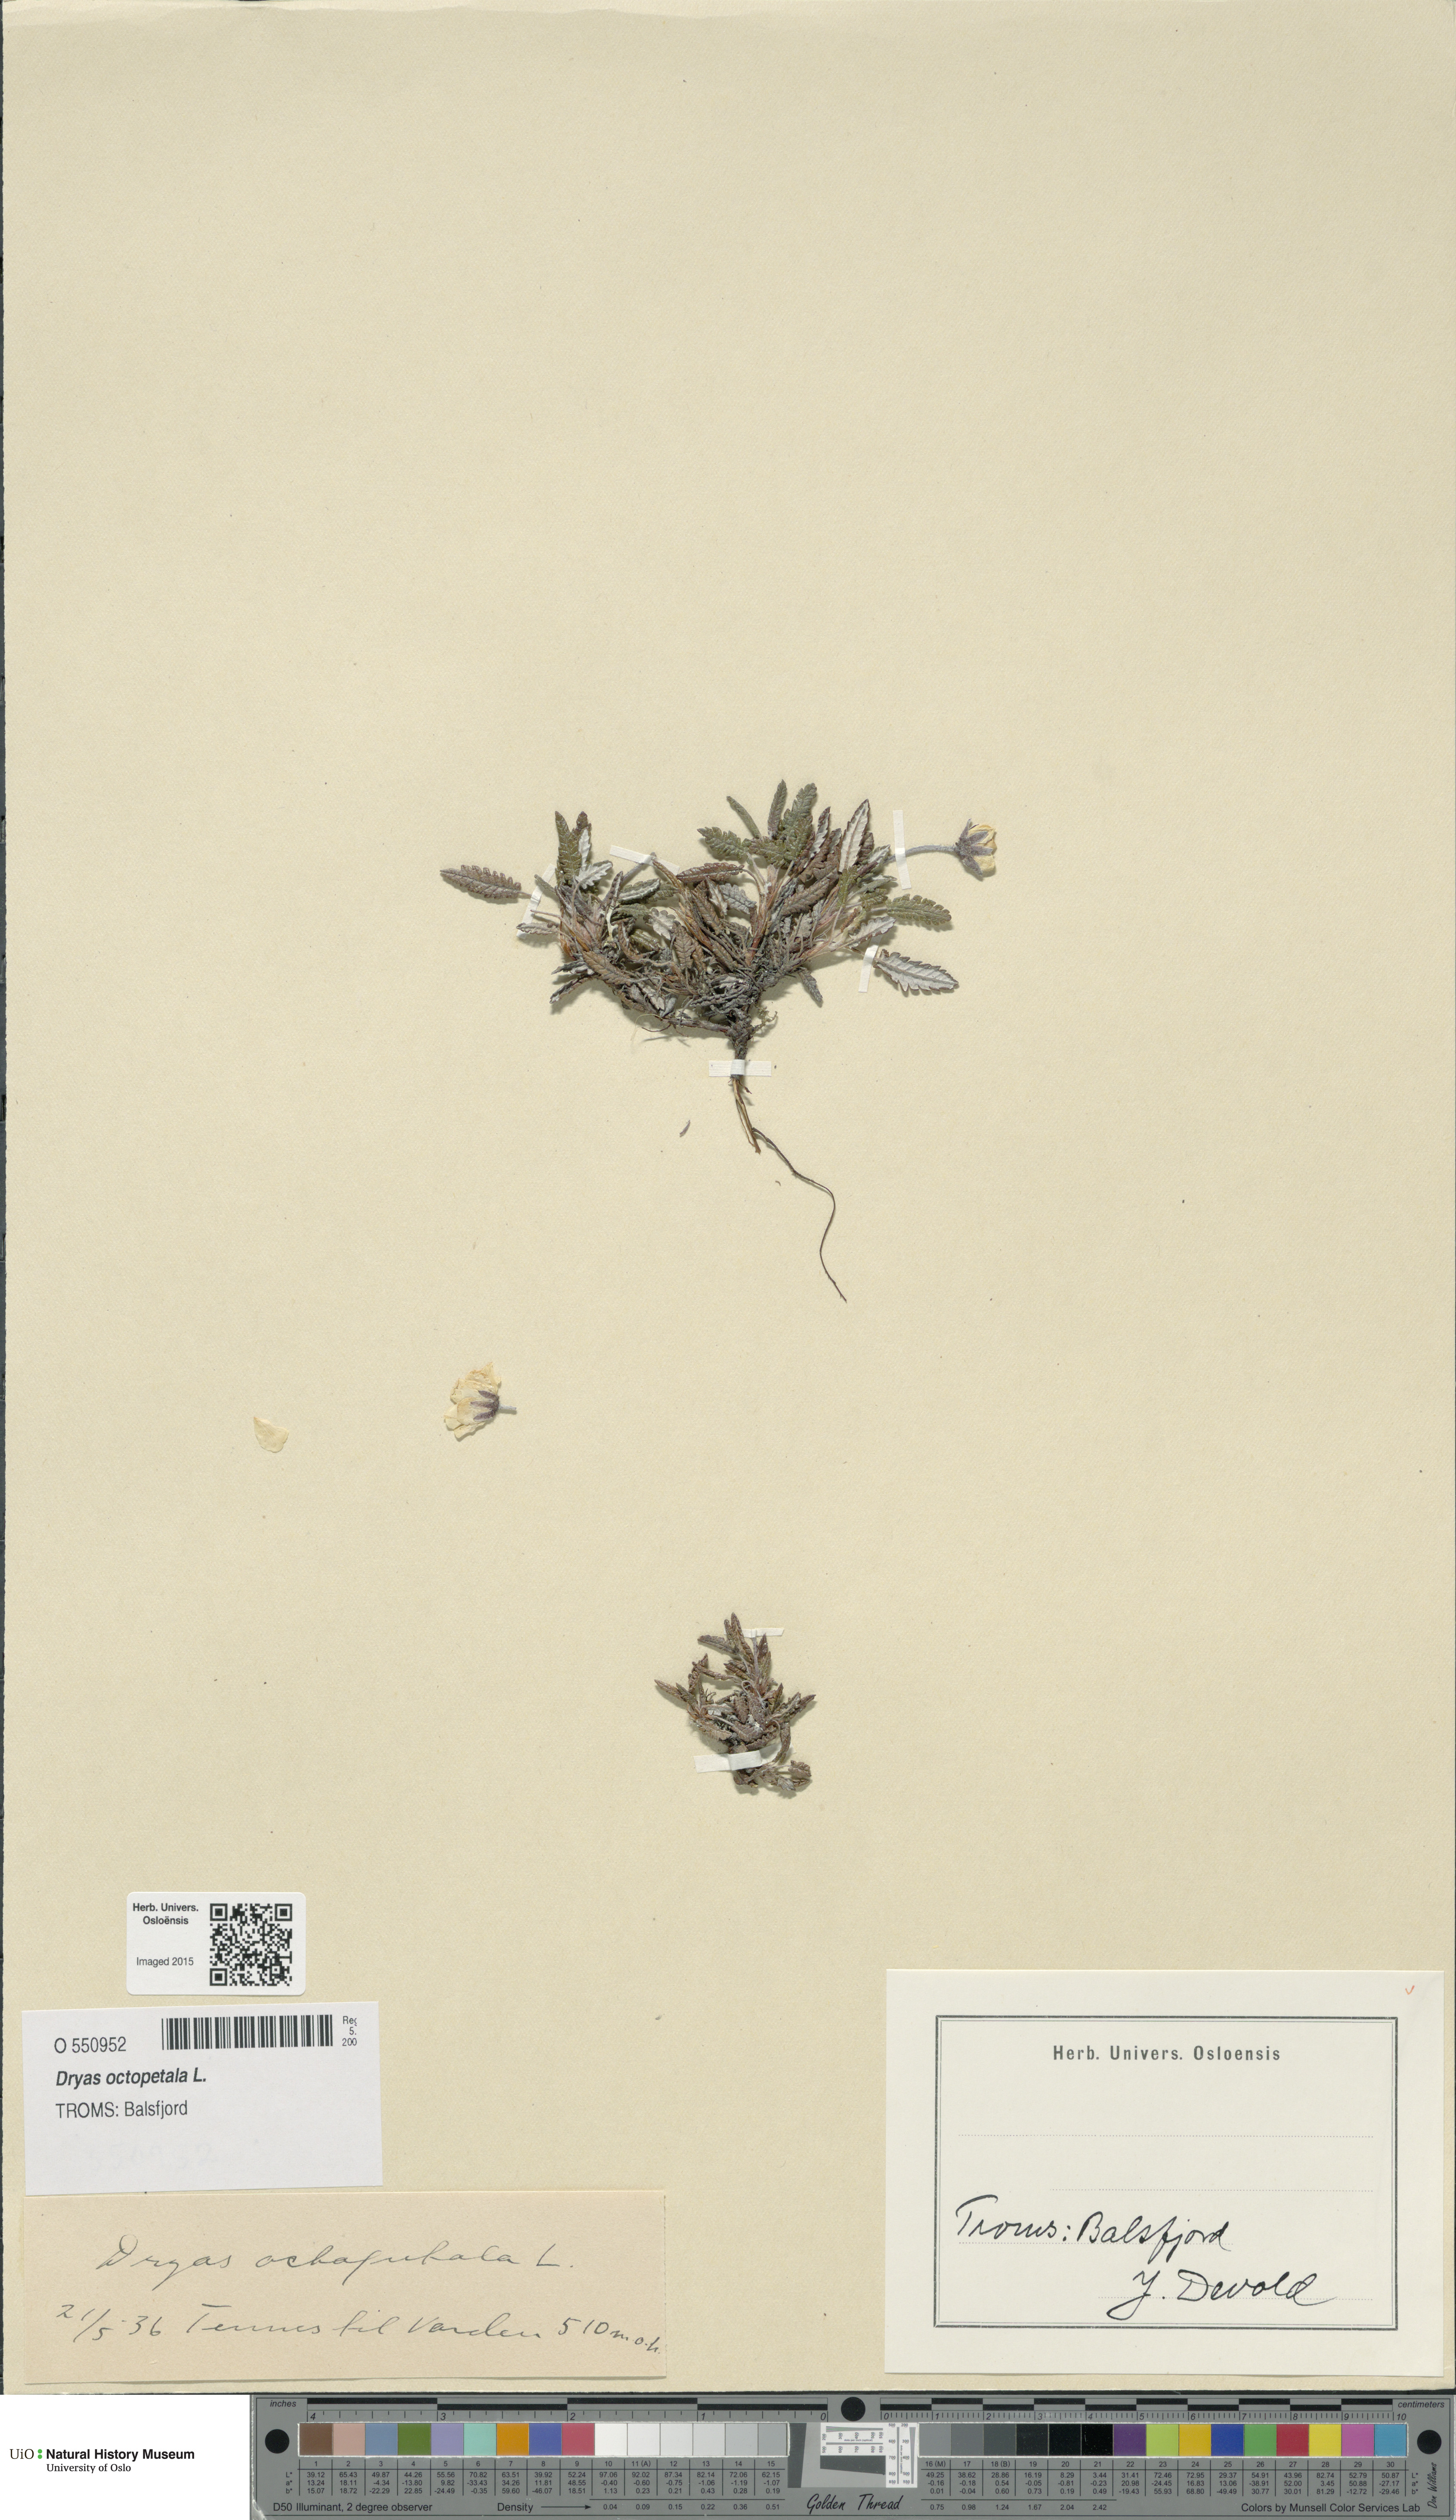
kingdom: Plantae
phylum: Tracheophyta
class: Magnoliopsida
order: Rosales
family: Rosaceae
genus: Dryas
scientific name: Dryas octopetala
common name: Eight-petal mountain-avens
